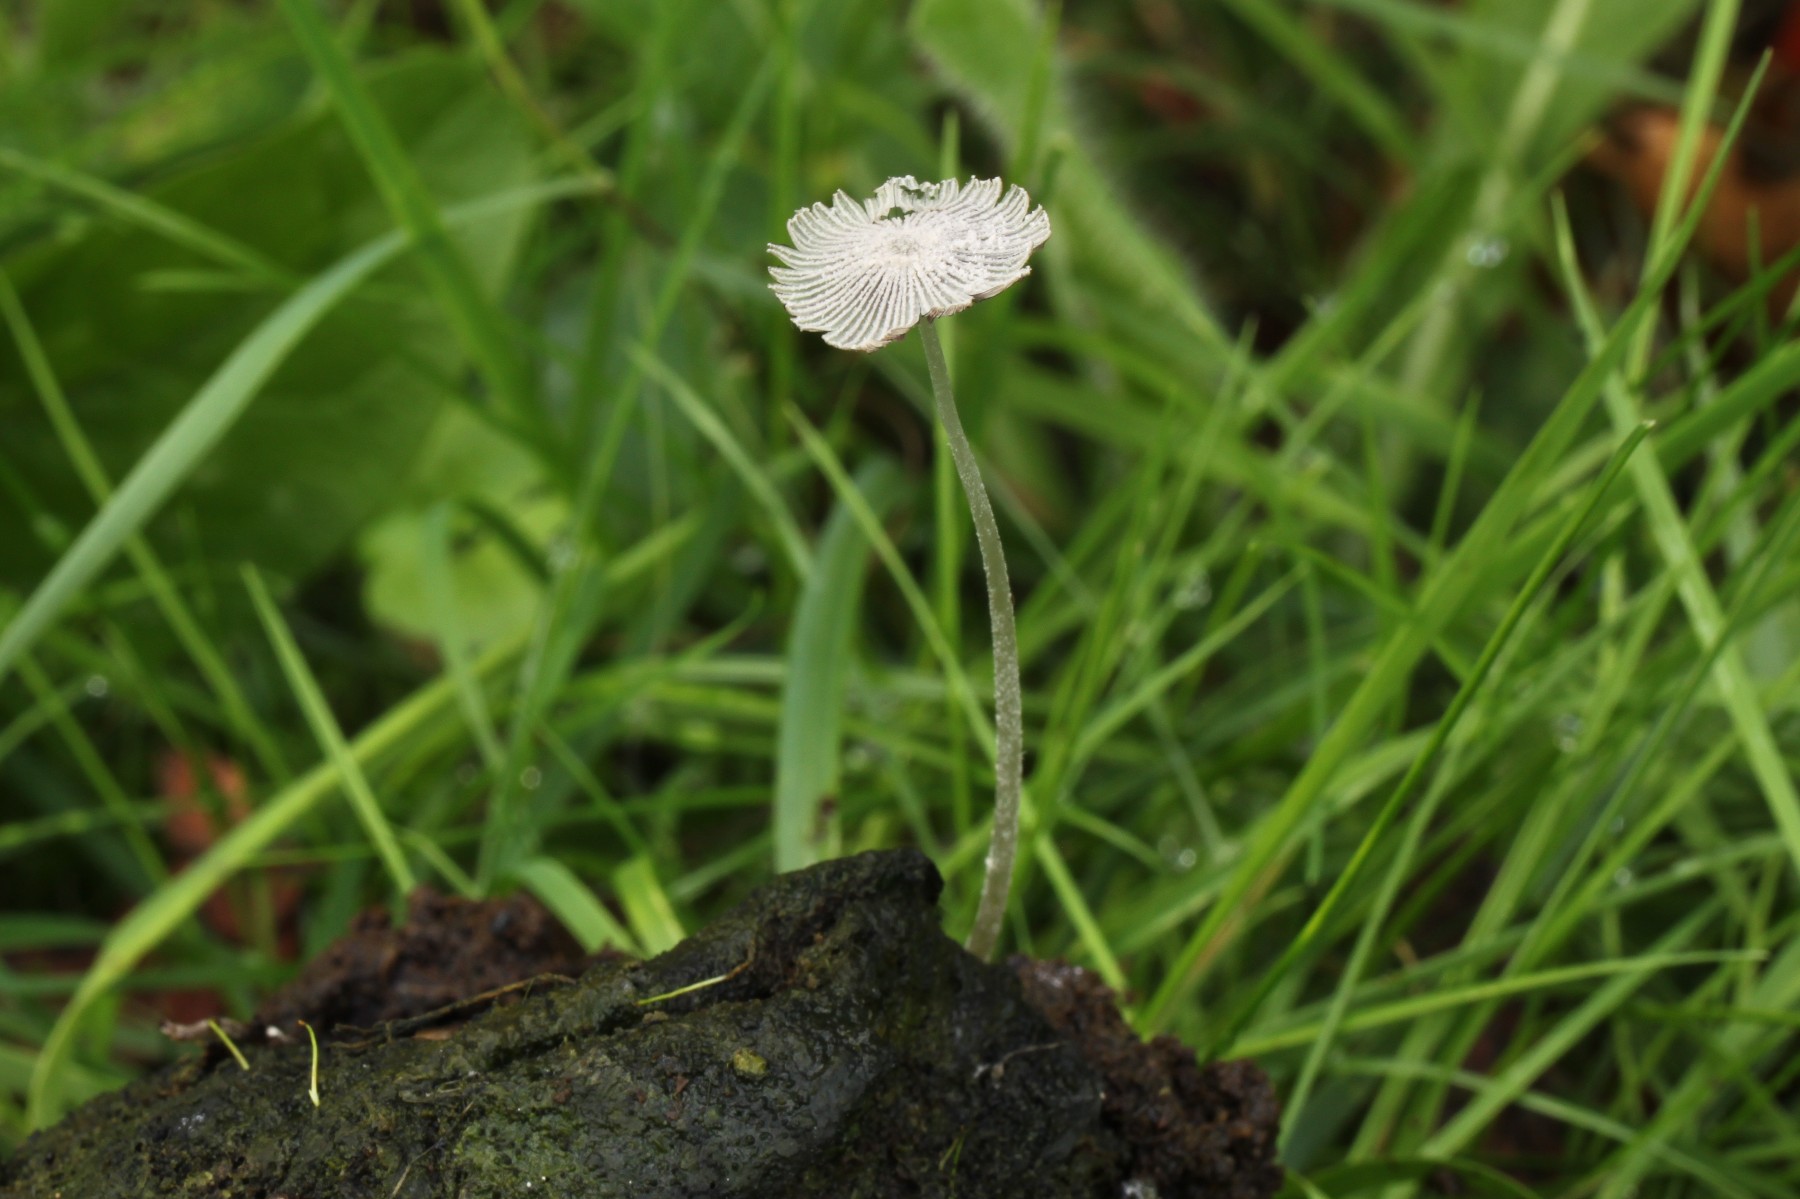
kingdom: Fungi
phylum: Basidiomycota
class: Agaricomycetes
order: Agaricales
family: Psathyrellaceae
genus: Coprinopsis
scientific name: Coprinopsis trispora
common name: tresporet blækhat
